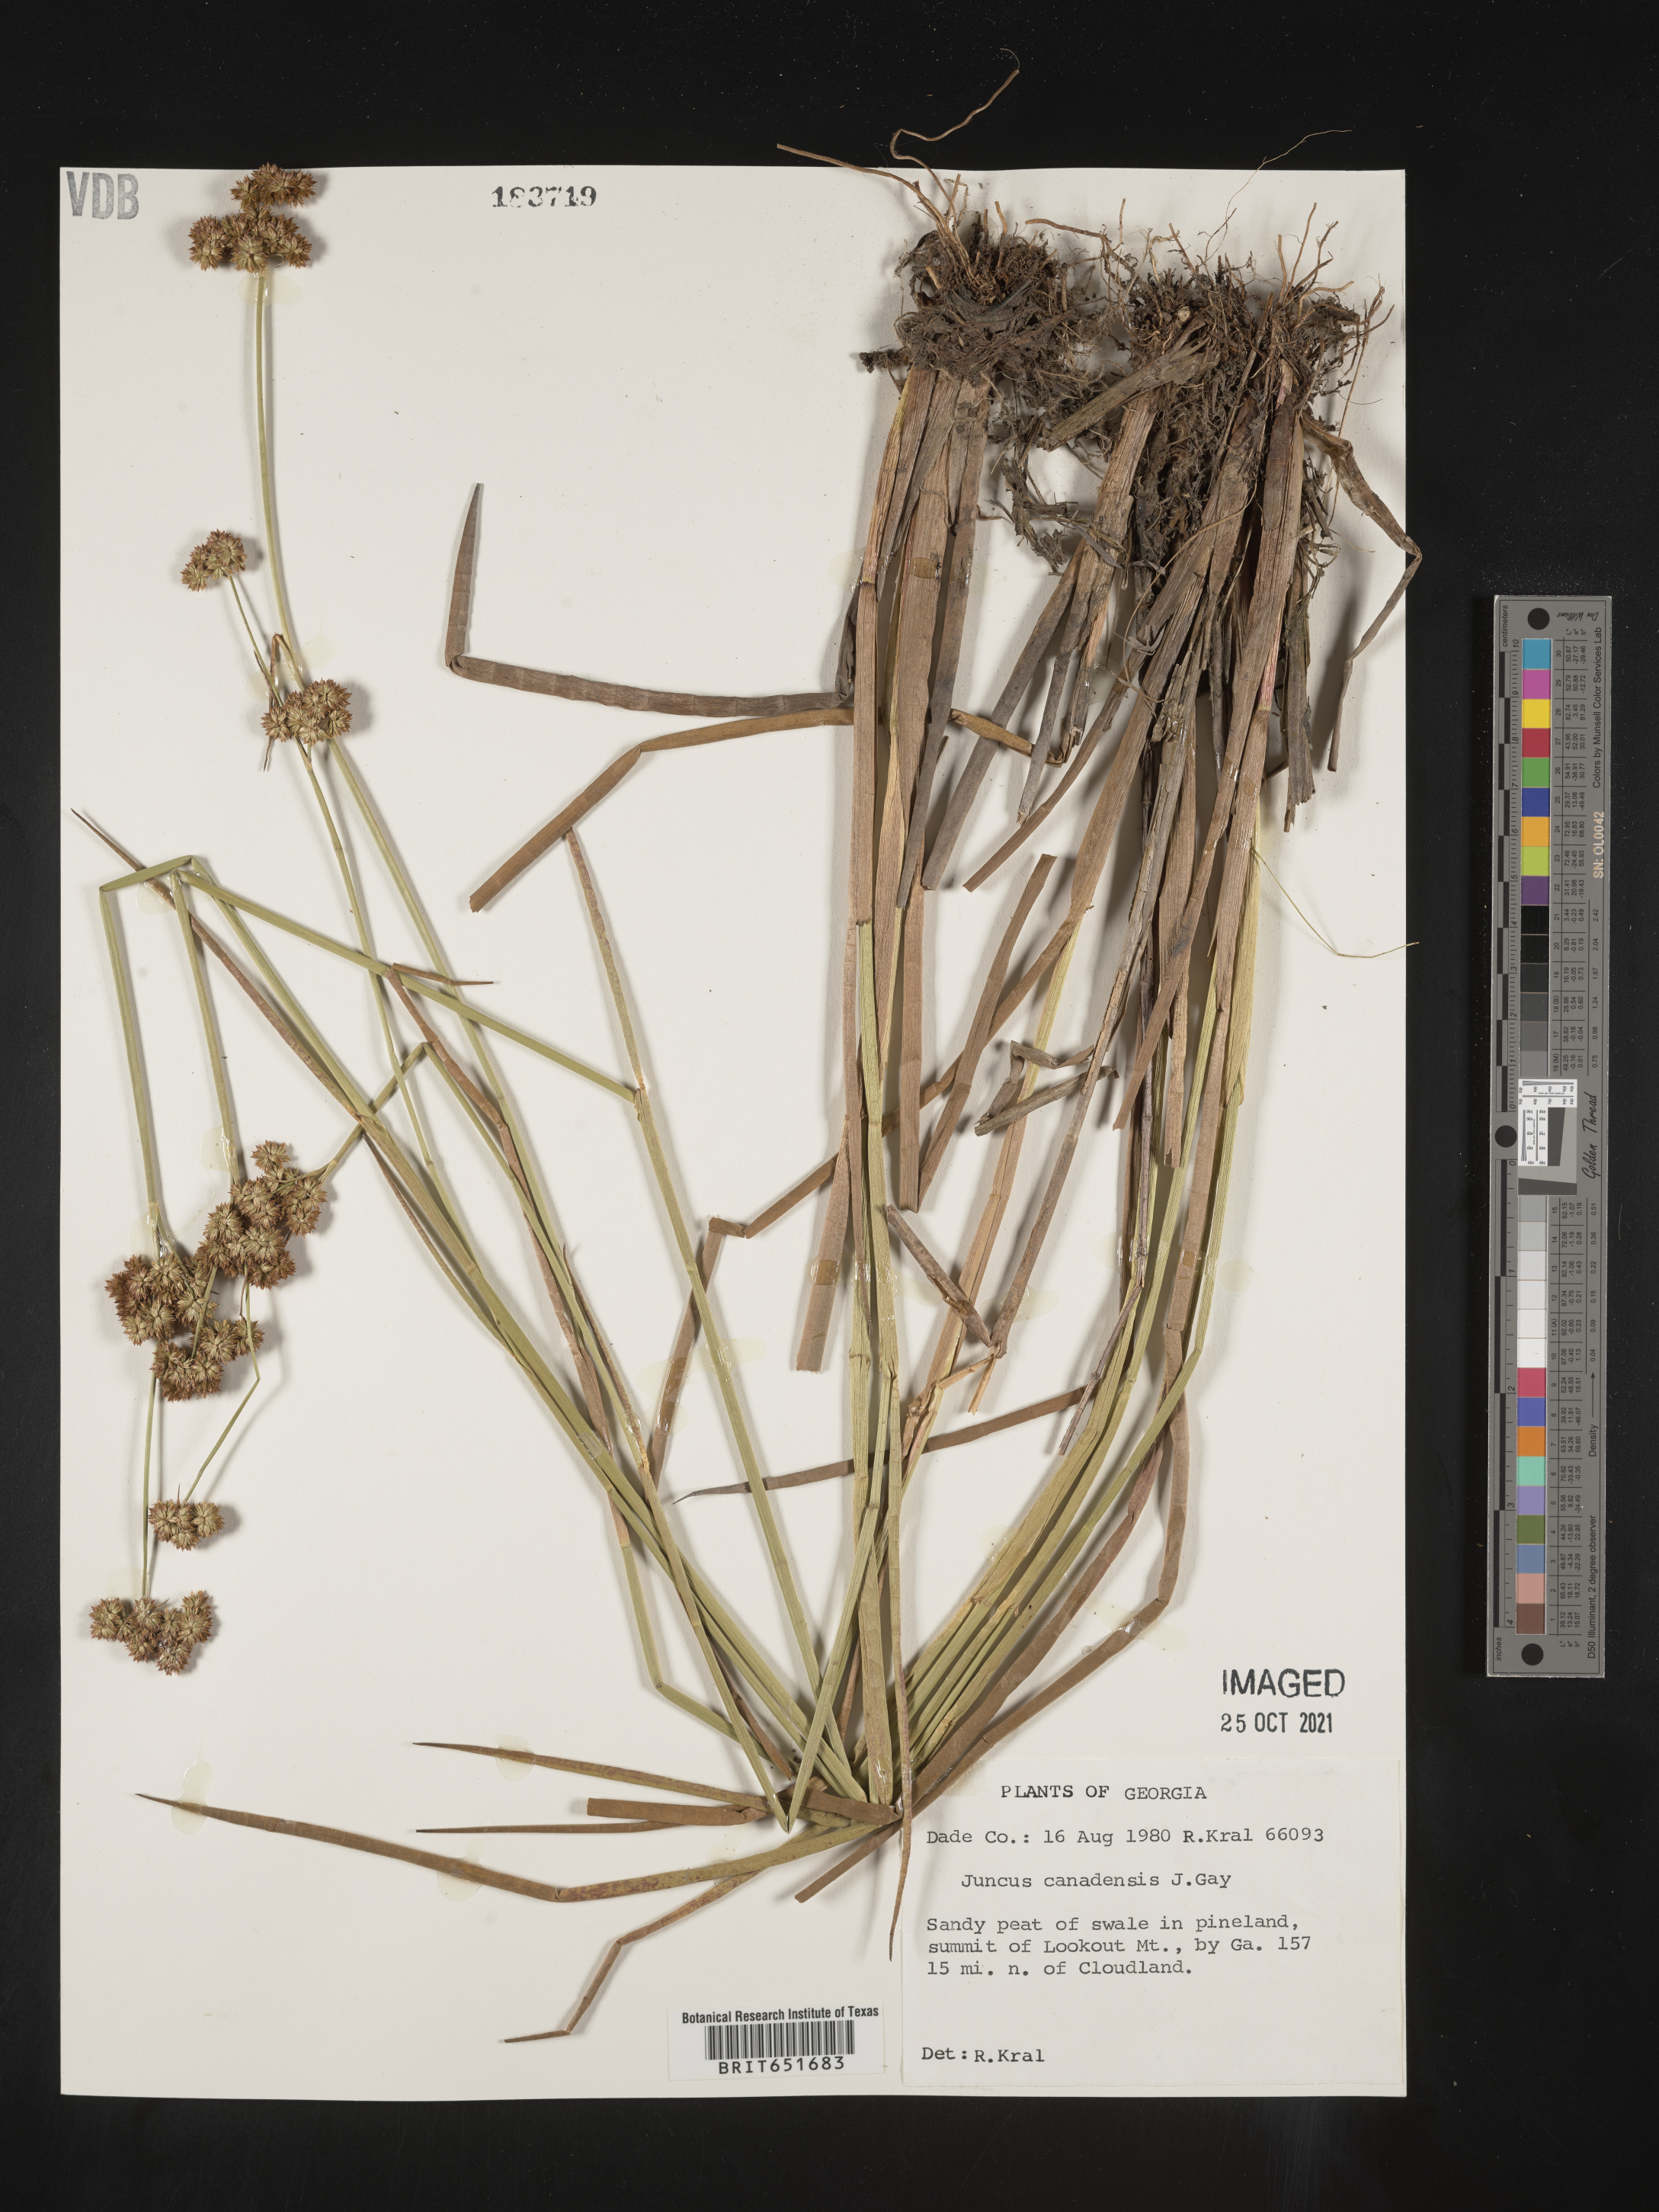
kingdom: Plantae
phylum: Tracheophyta
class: Liliopsida
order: Poales
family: Juncaceae
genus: Juncus
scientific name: Juncus canadensis
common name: Canada rush
